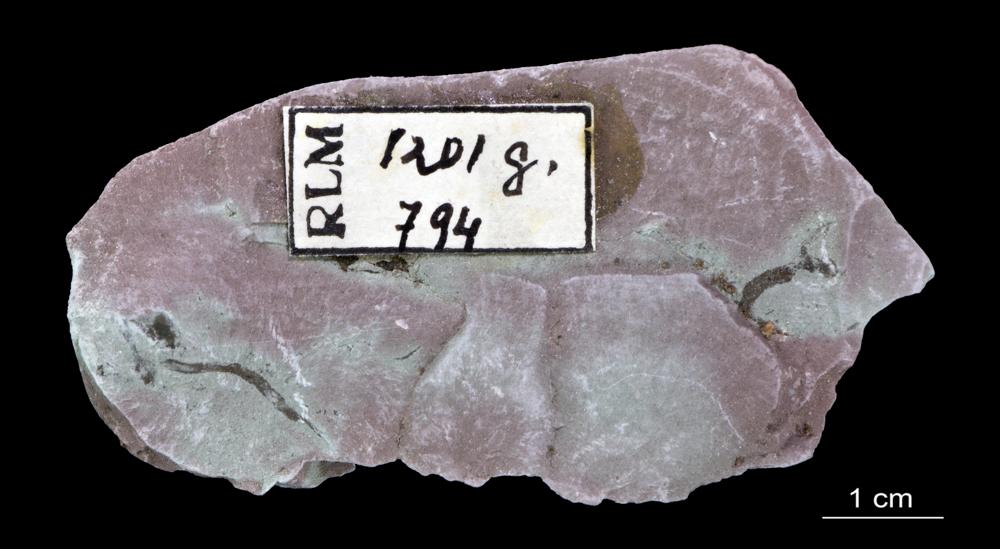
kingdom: Chromista
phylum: Foraminifera
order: Astrorhizida
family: Hyperamminidae
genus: Platysolenites
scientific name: Platysolenites antiquissimus
